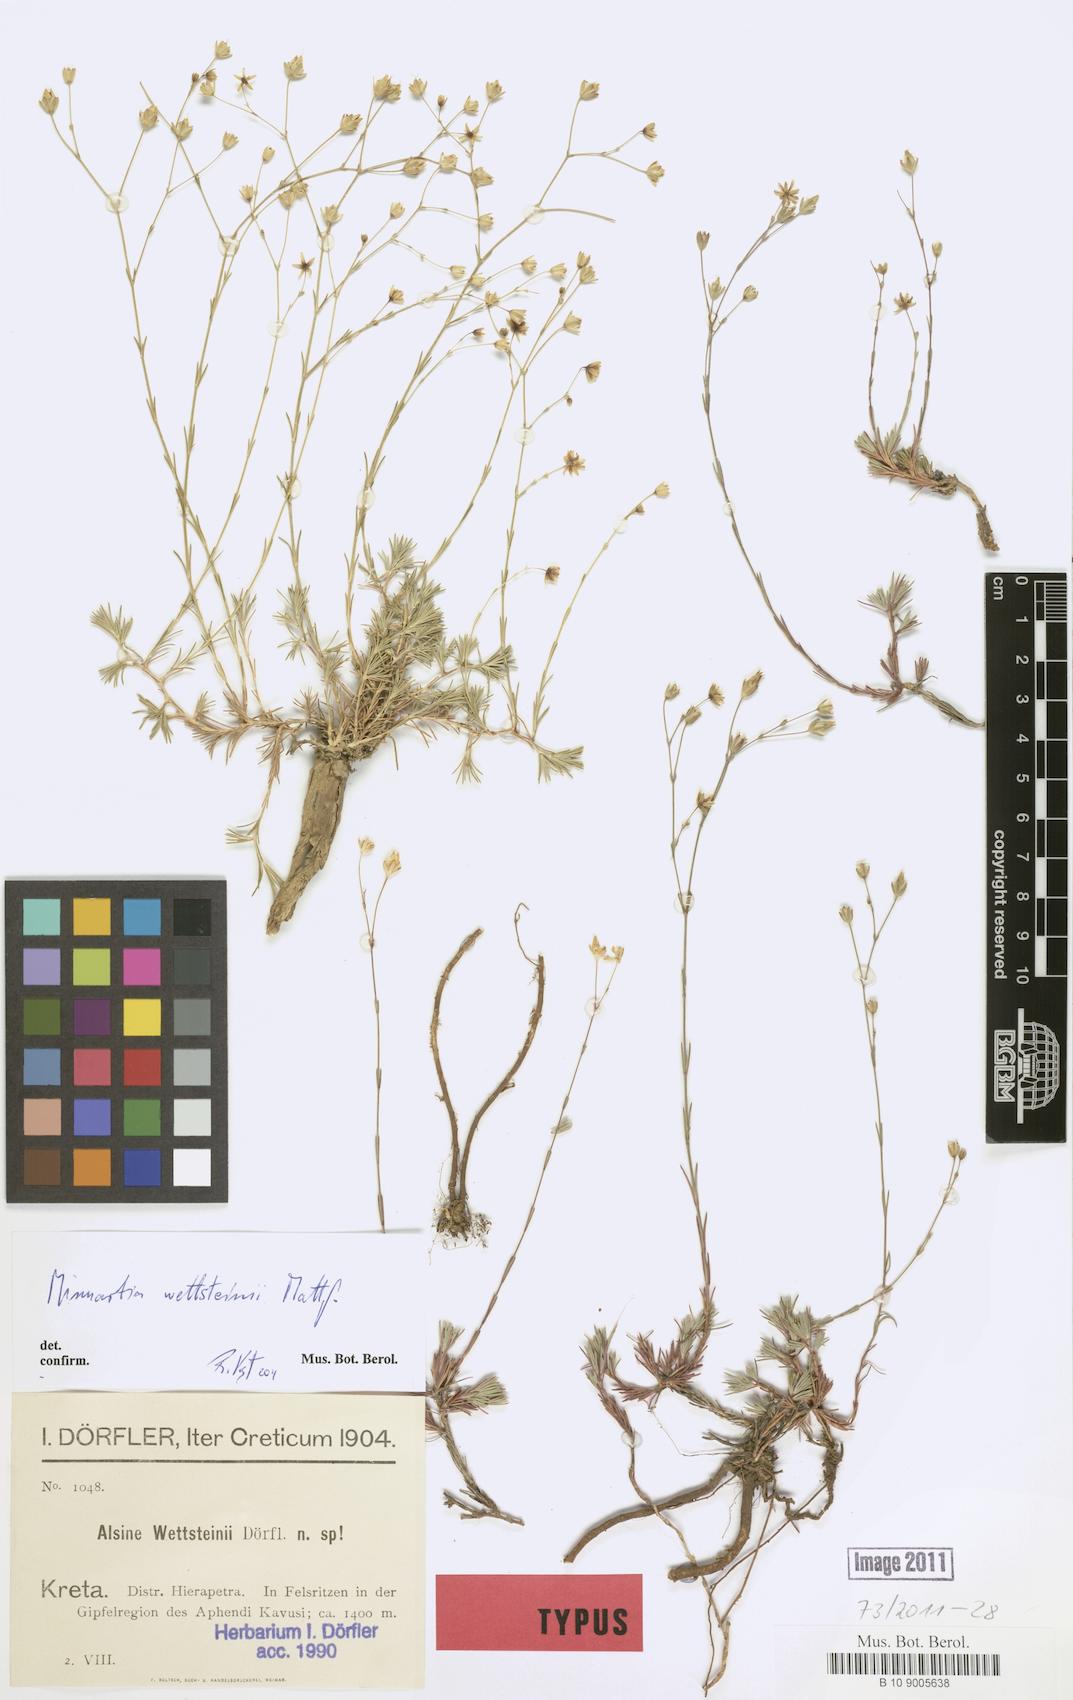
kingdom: Plantae
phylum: Tracheophyta
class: Magnoliopsida
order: Caryophyllales
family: Caryophyllaceae
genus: Cherleria
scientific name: Cherleria wettsteinii
